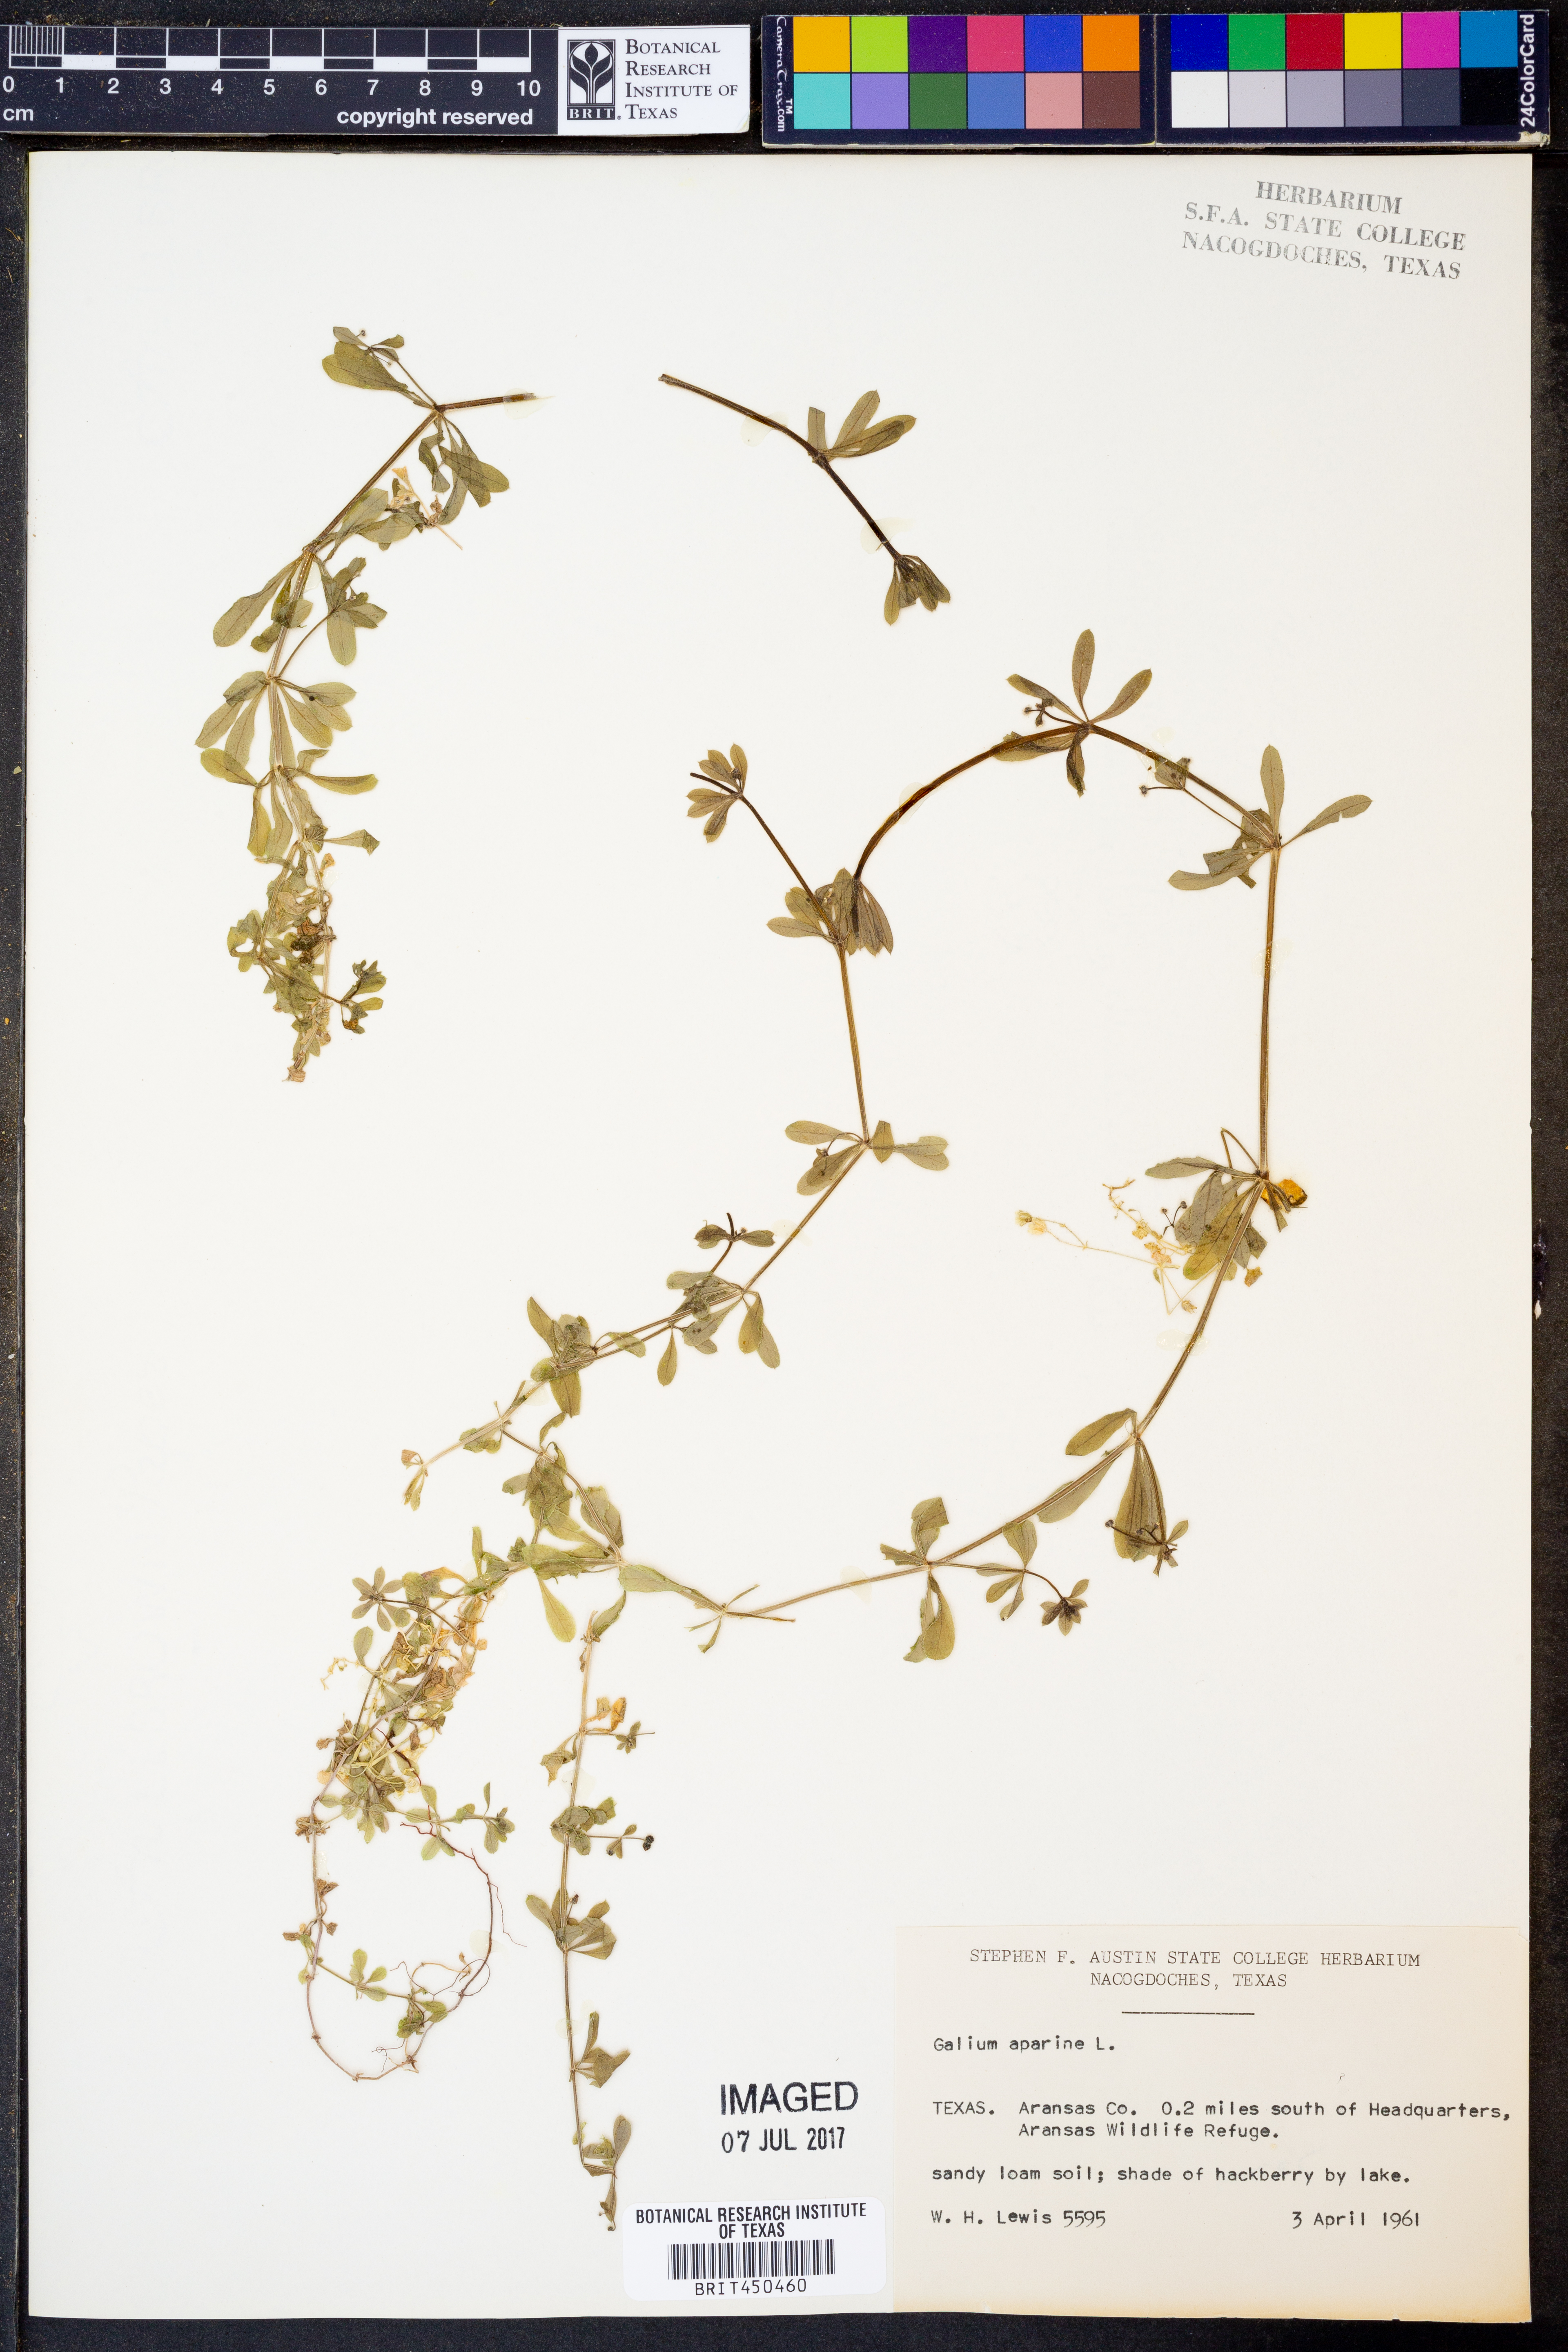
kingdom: Plantae
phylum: Tracheophyta
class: Magnoliopsida
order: Gentianales
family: Rubiaceae
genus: Galium
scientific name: Galium aparine
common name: Cleavers
